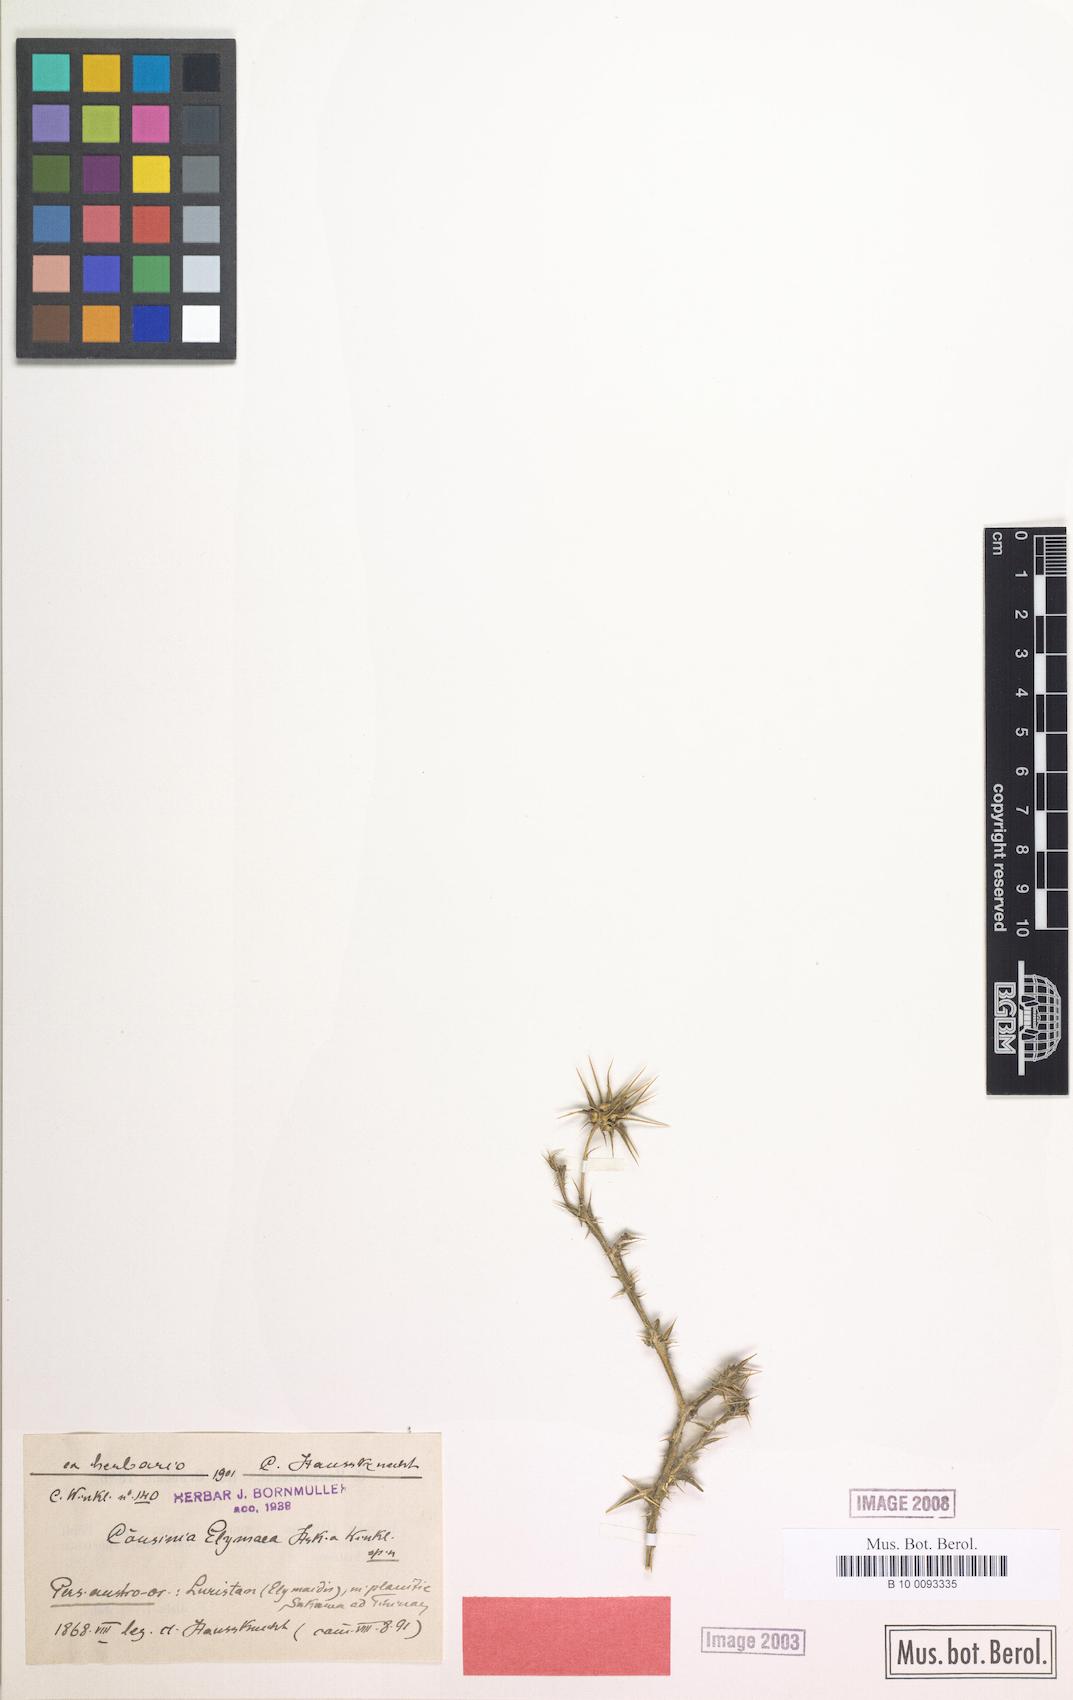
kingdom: Plantae
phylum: Tracheophyta
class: Magnoliopsida
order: Asterales
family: Asteraceae
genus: Cousinia
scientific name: Cousinia gracilis
